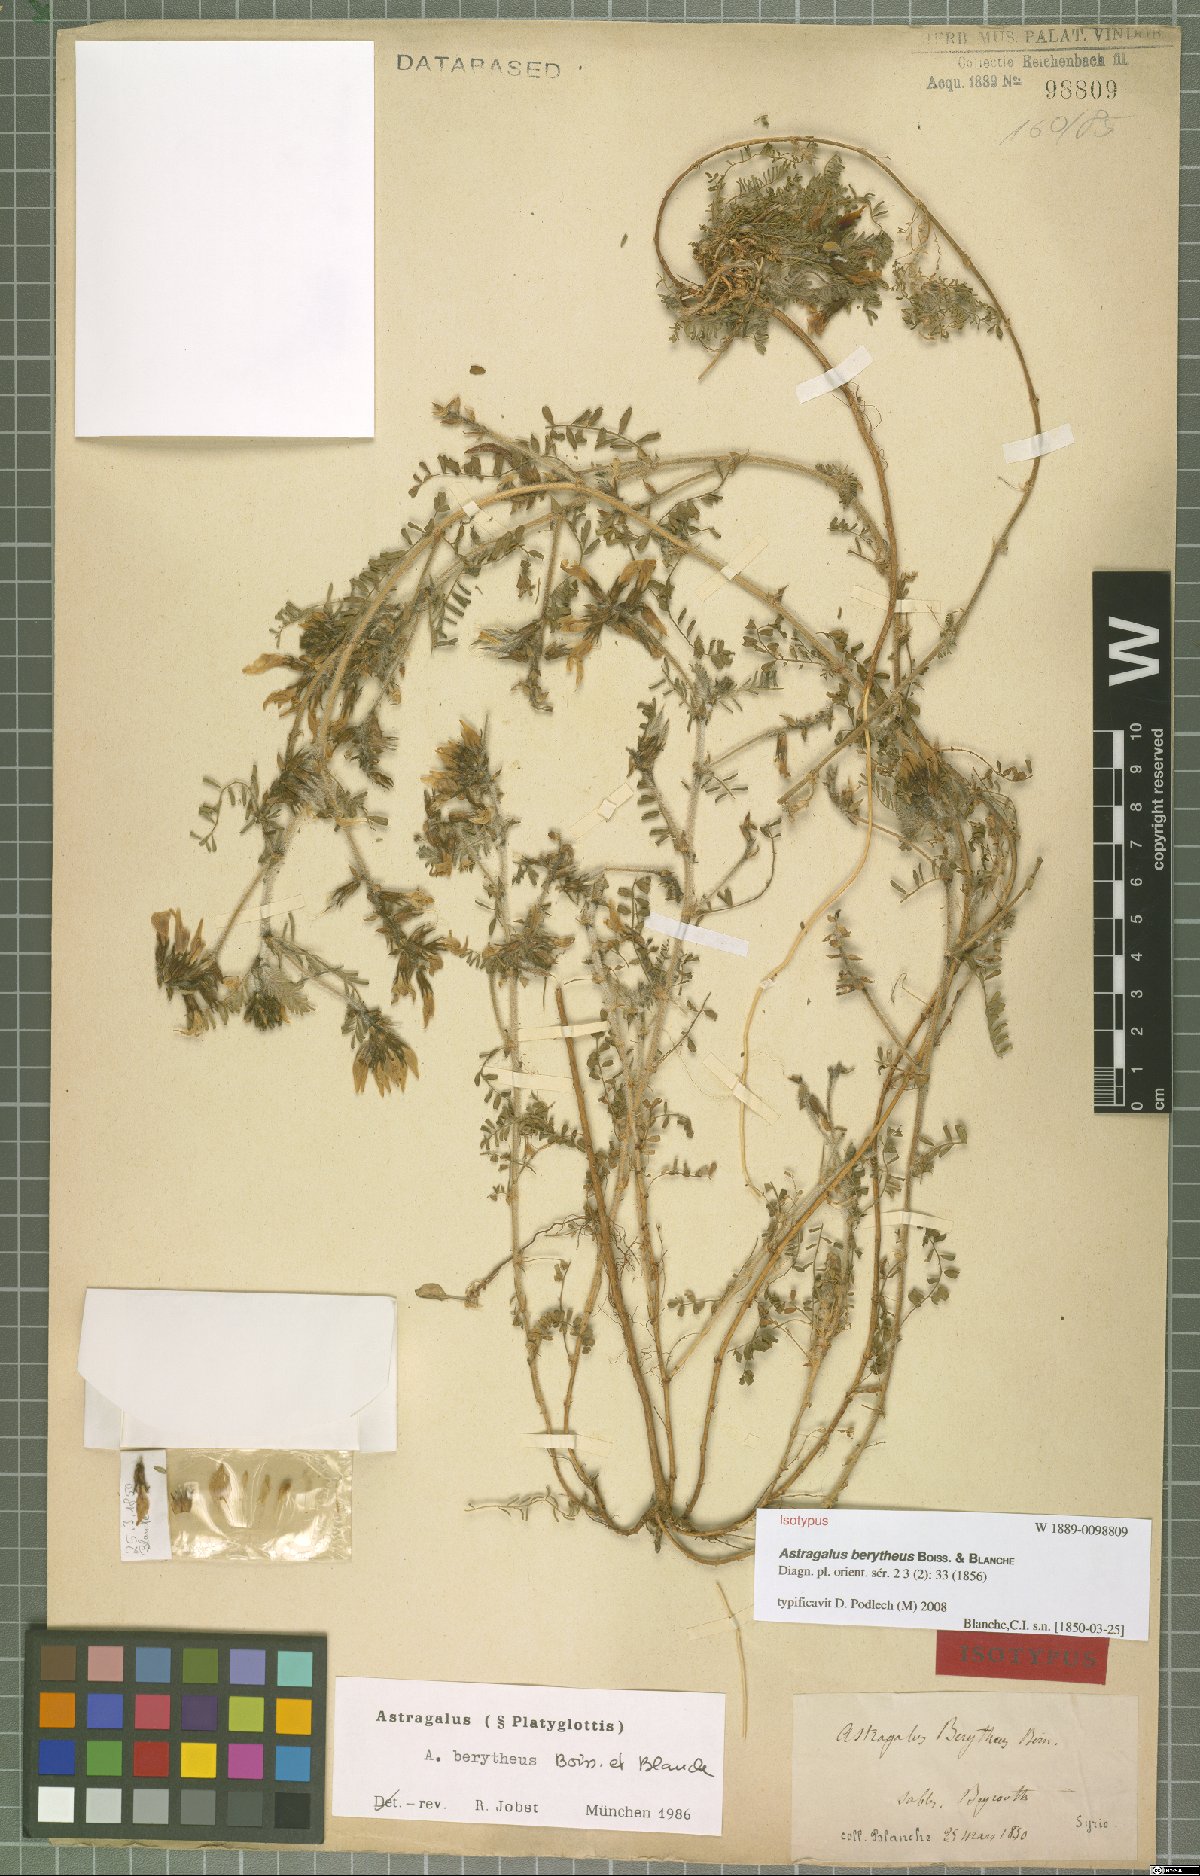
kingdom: Plantae
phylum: Tracheophyta
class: Magnoliopsida
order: Fabales
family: Fabaceae
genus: Astragalus
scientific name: Astragalus berytheus
